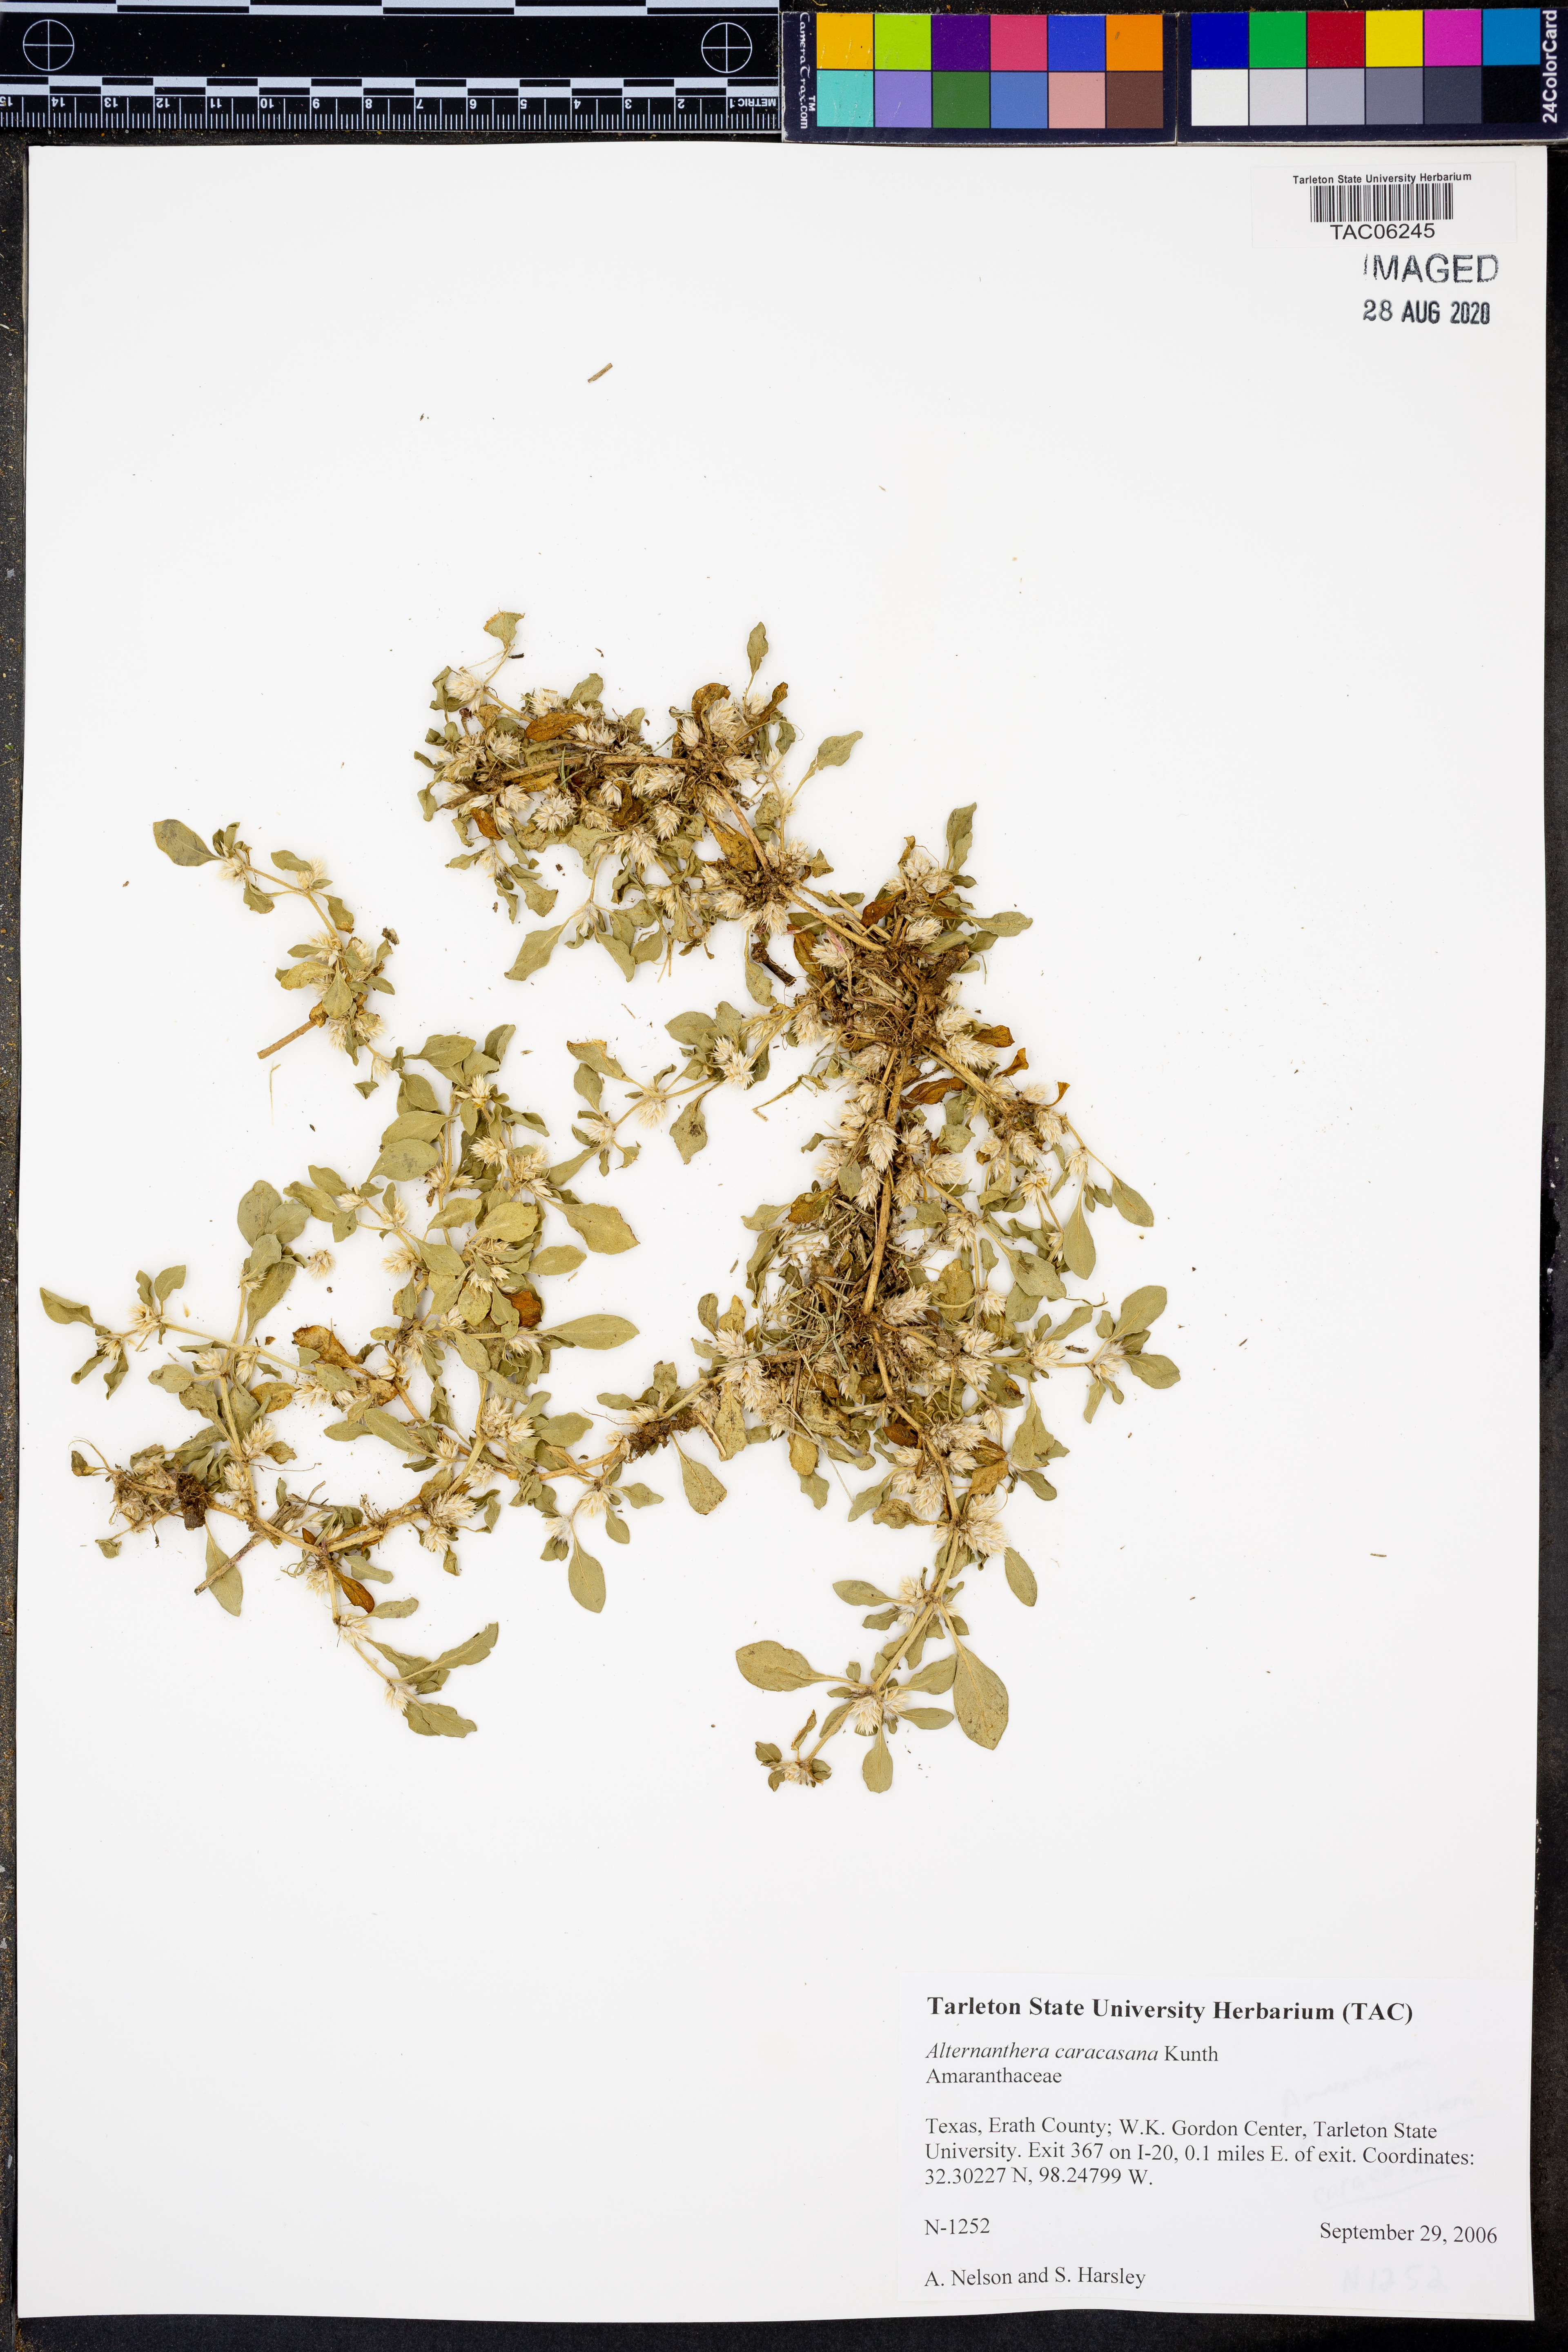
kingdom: Plantae
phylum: Tracheophyta
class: Magnoliopsida
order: Caryophyllales
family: Amaranthaceae
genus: Alternanthera
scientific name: Alternanthera caracasana
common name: Washerwoman
